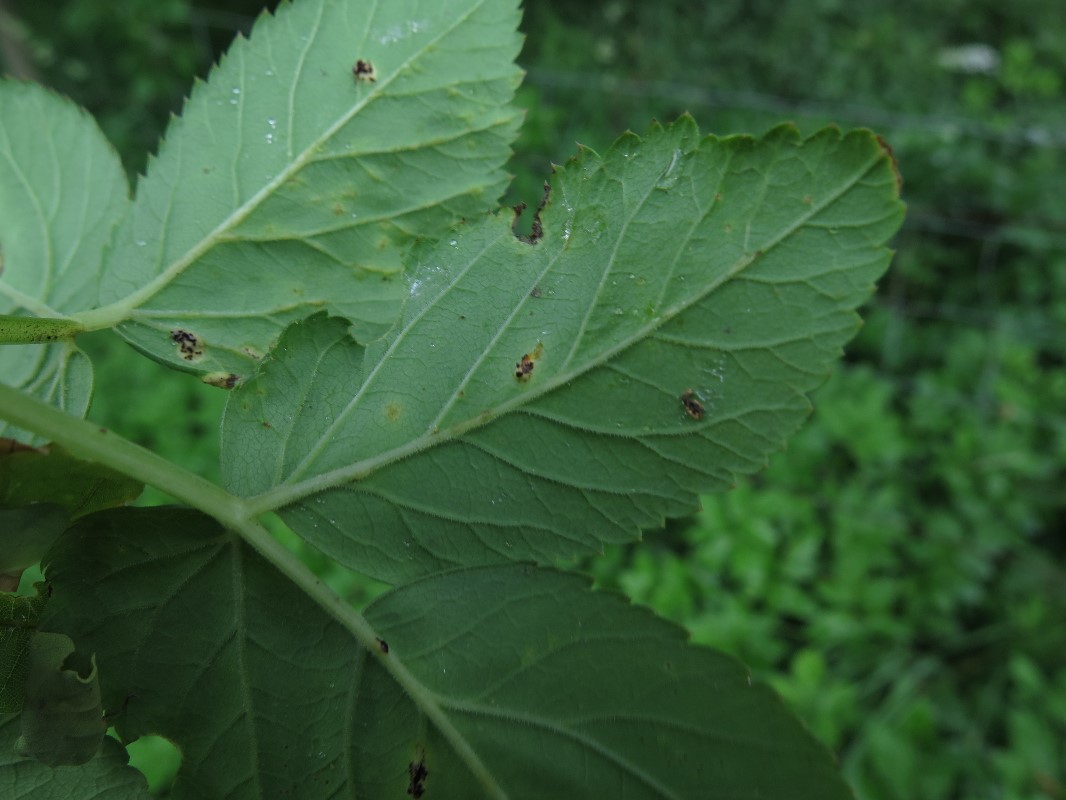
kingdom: Fungi
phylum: Basidiomycota
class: Pucciniomycetes
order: Pucciniales
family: Pucciniaceae
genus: Puccinia
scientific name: Puccinia
